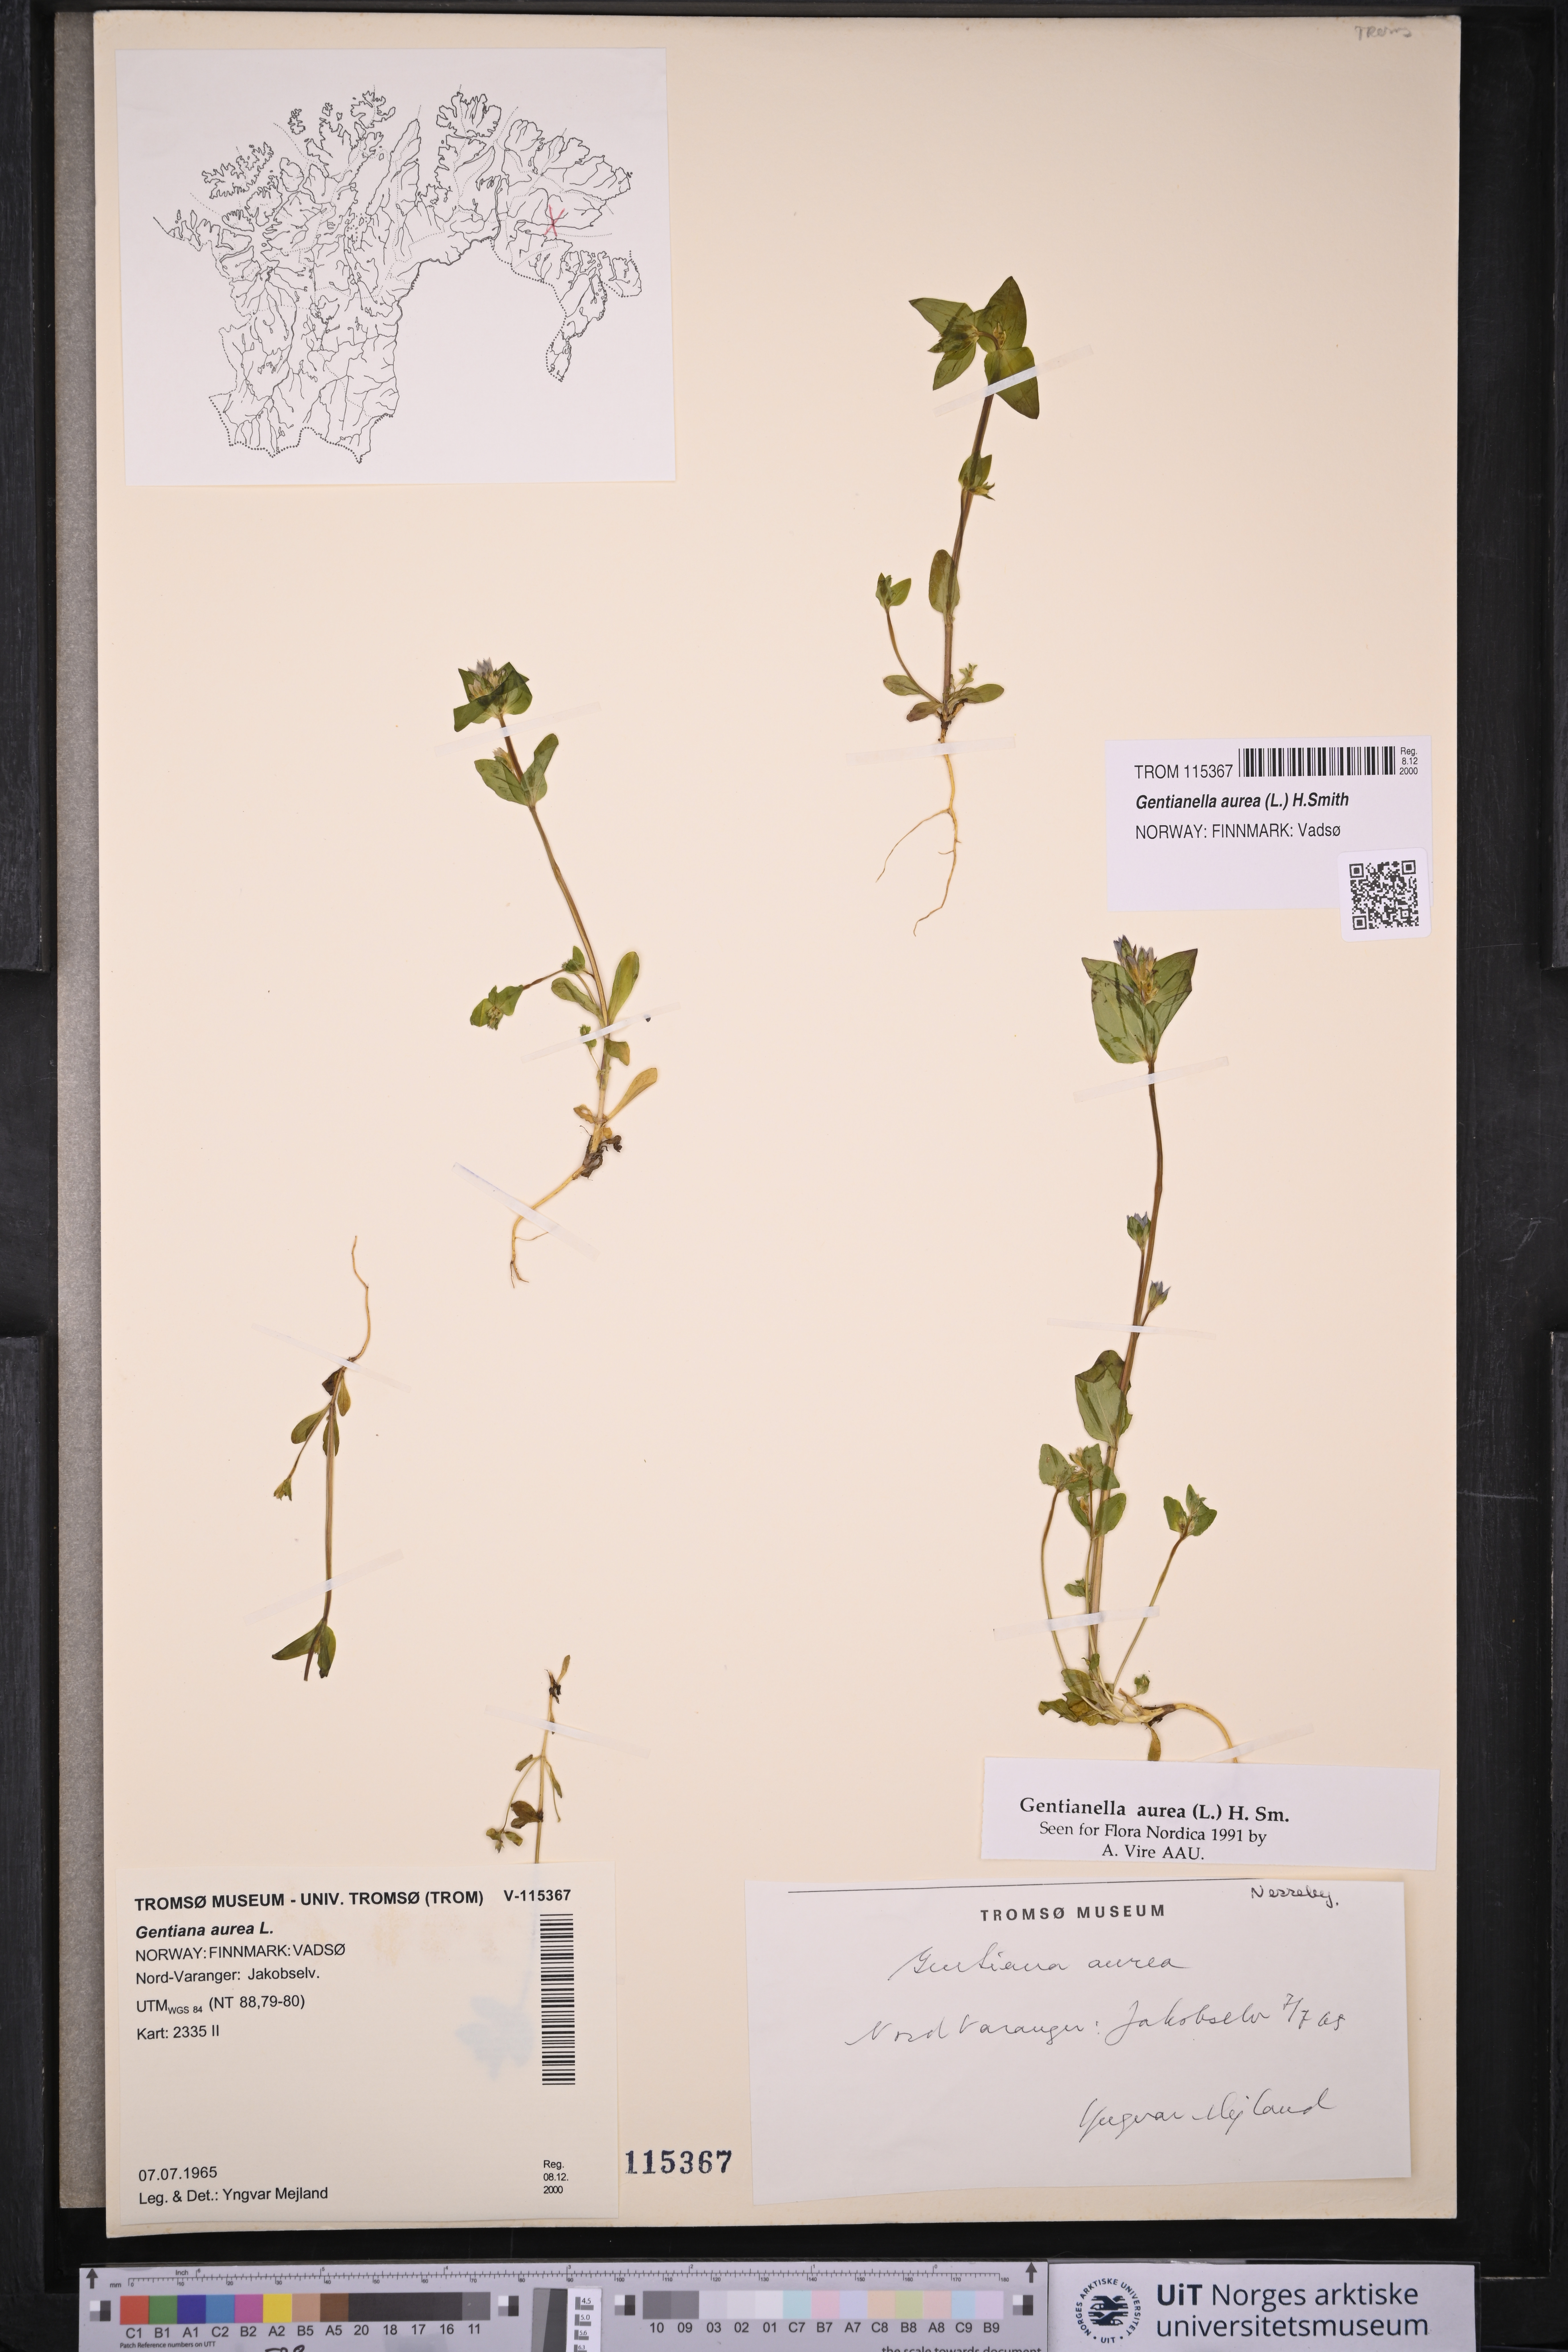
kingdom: Plantae
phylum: Tracheophyta
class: Magnoliopsida
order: Gentianales
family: Gentianaceae
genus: Gentianella
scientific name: Gentianella aurea
